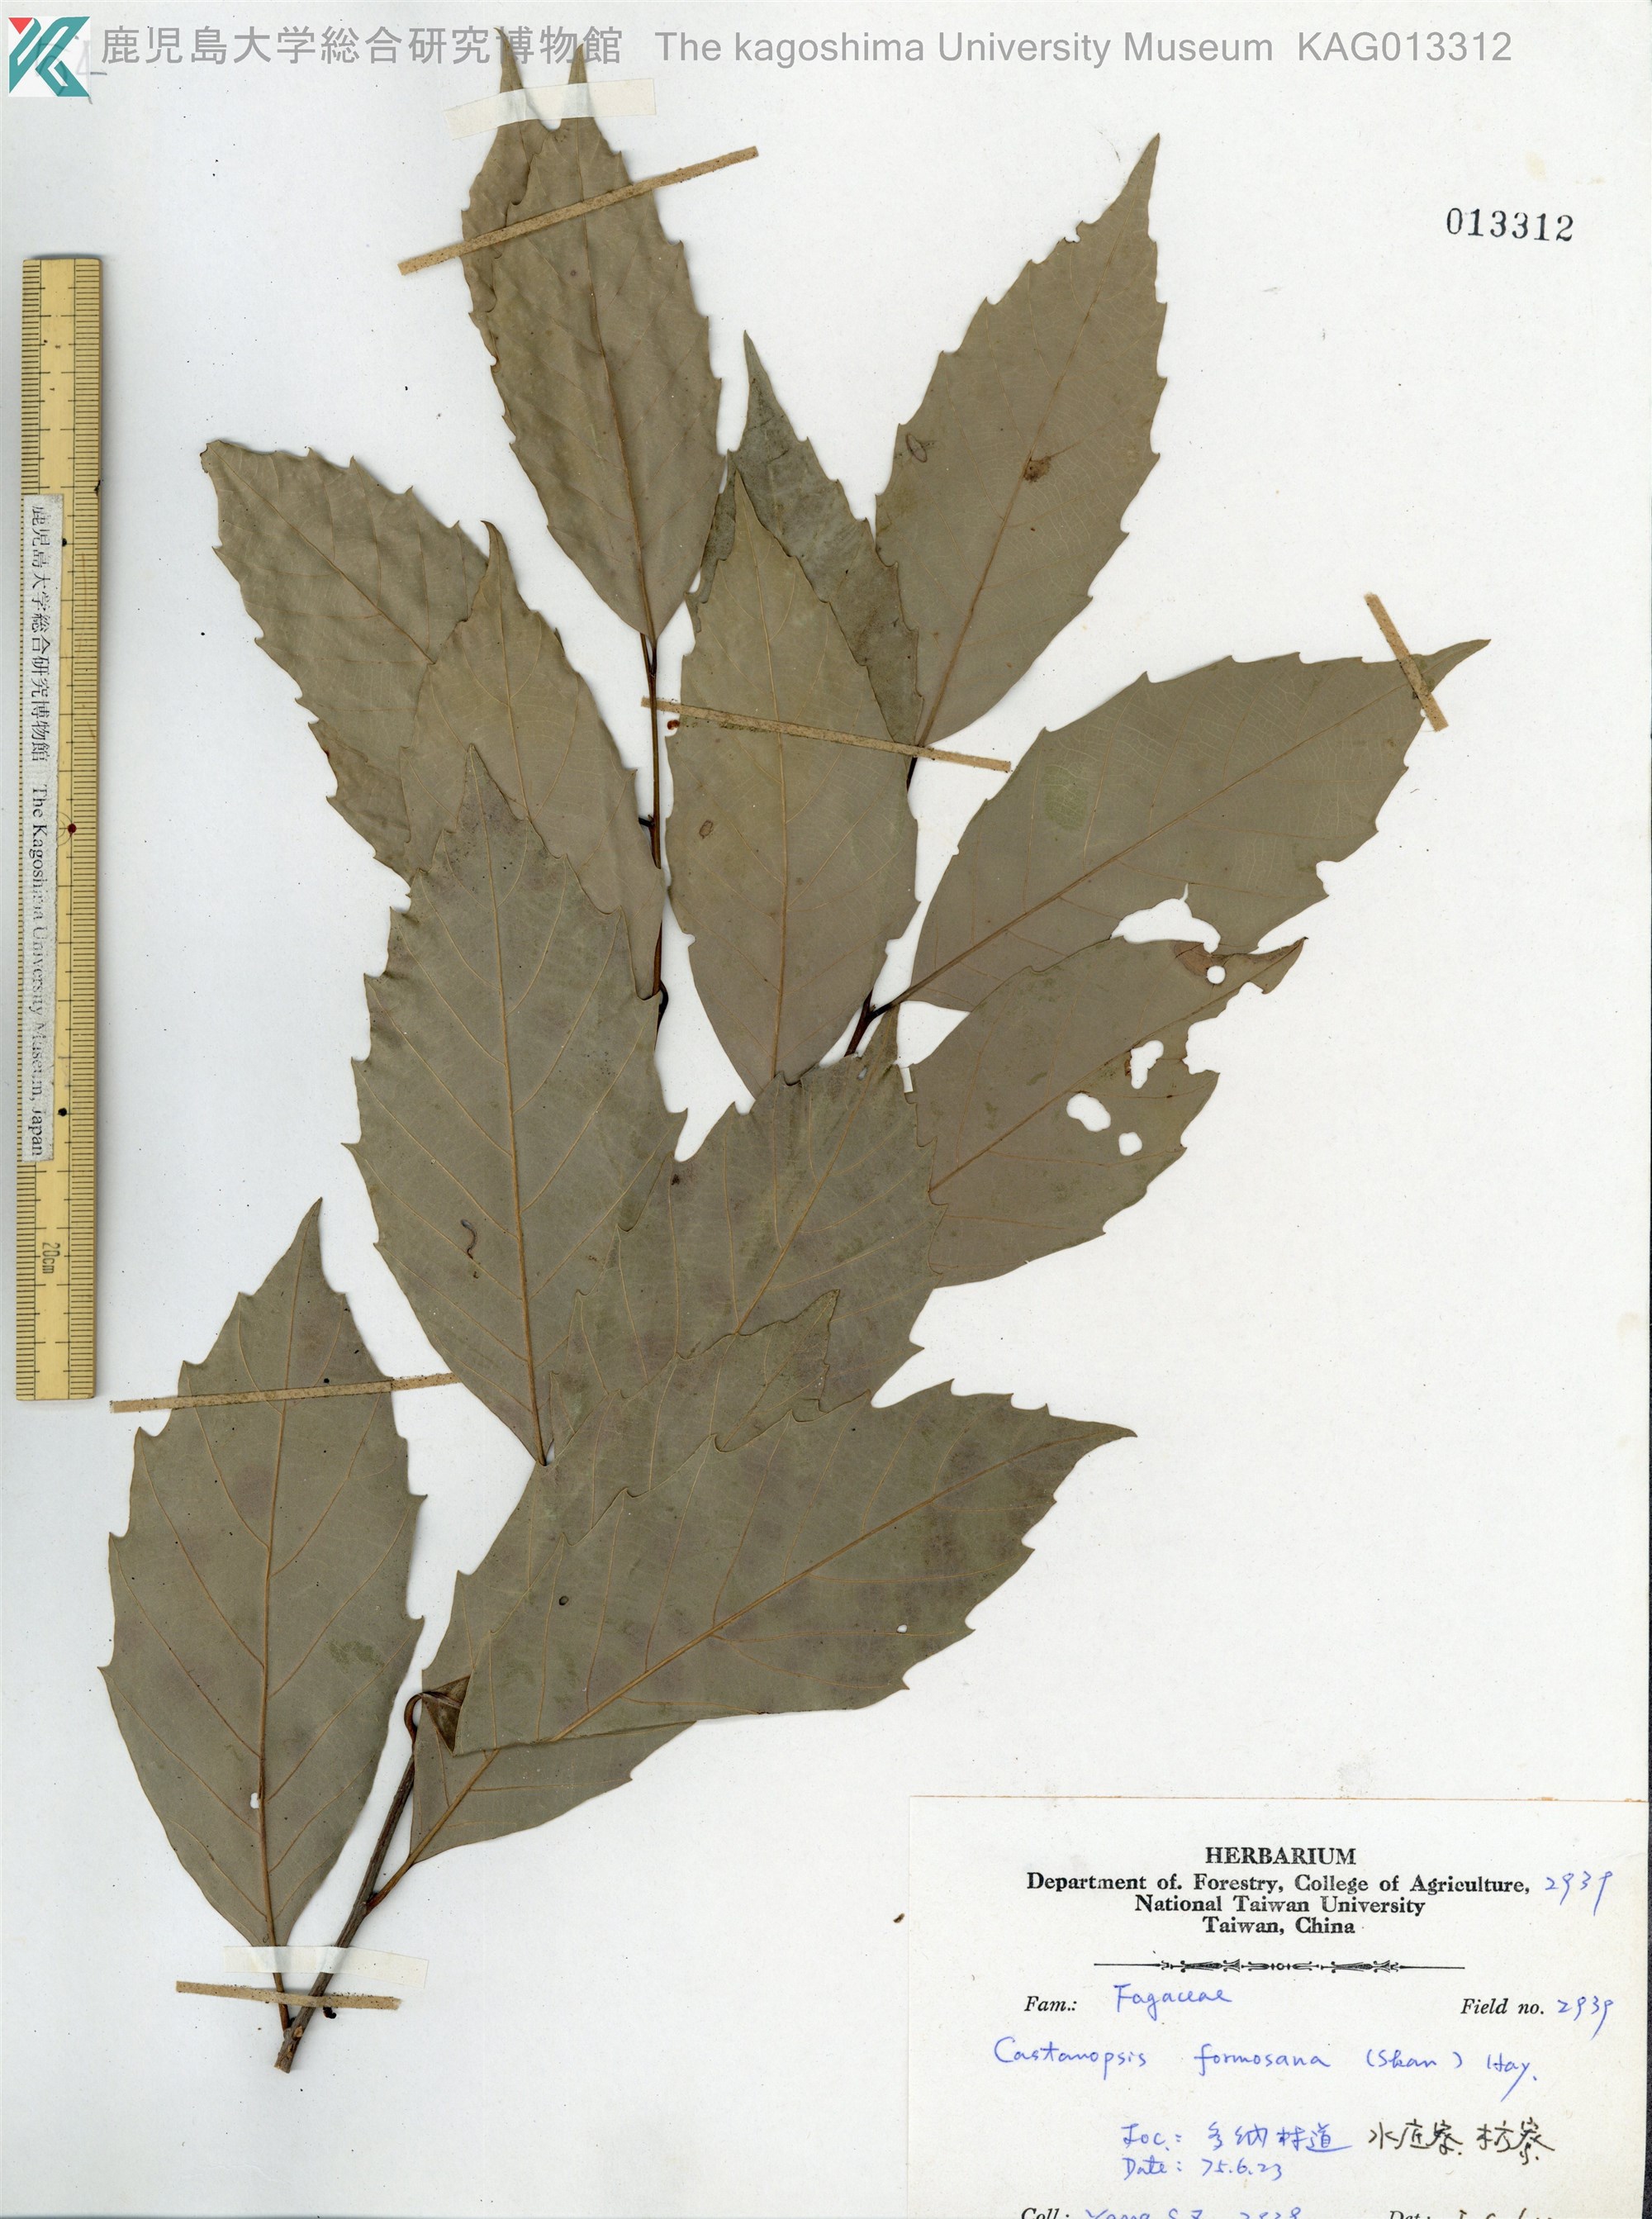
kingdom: Plantae
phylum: Tracheophyta
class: Magnoliopsida
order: Fagales
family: Fagaceae
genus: Castanopsis
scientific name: Castanopsis formosana
